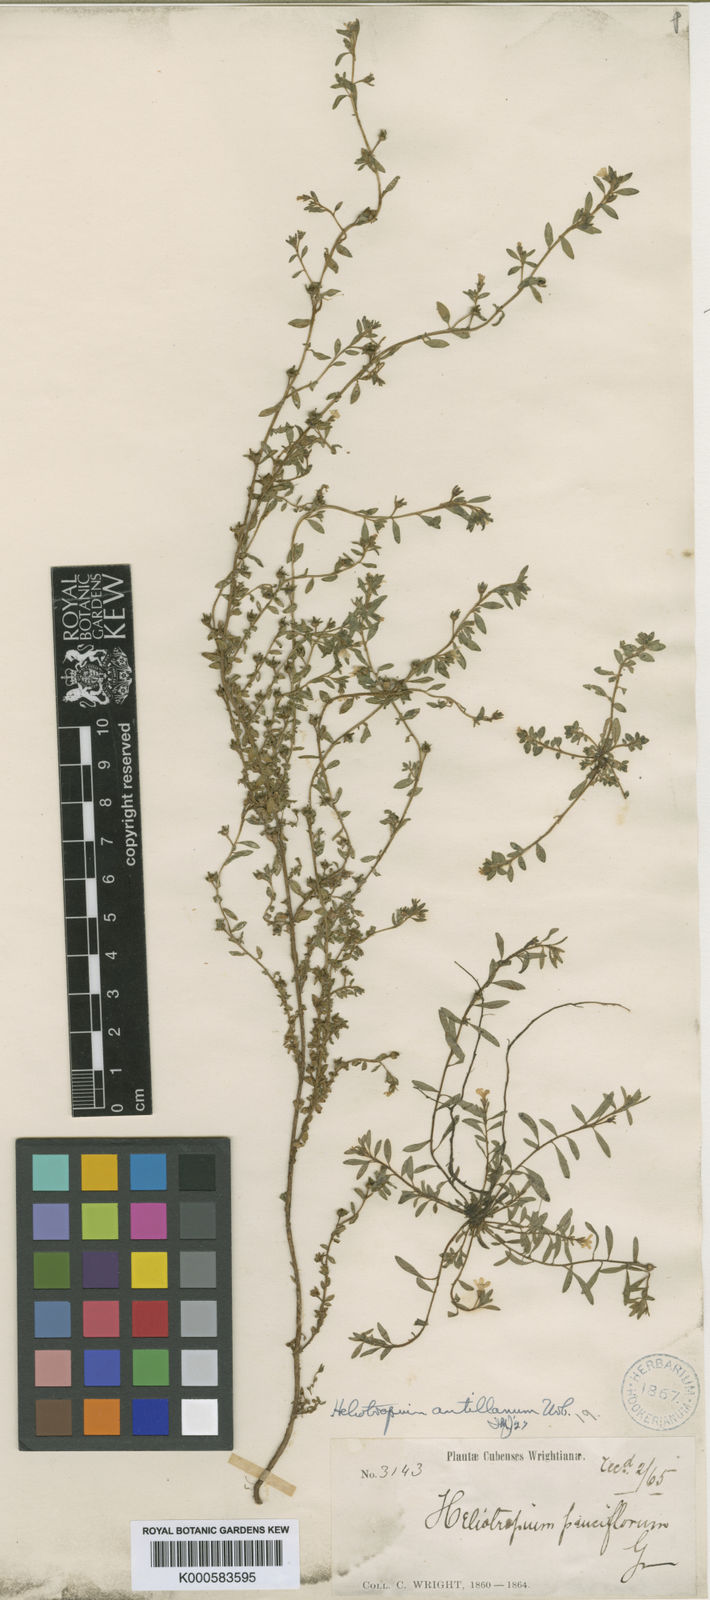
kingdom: Plantae
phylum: Tracheophyta
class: Magnoliopsida
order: Boraginales
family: Heliotropiaceae
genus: Euploca
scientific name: Euploca antillana
